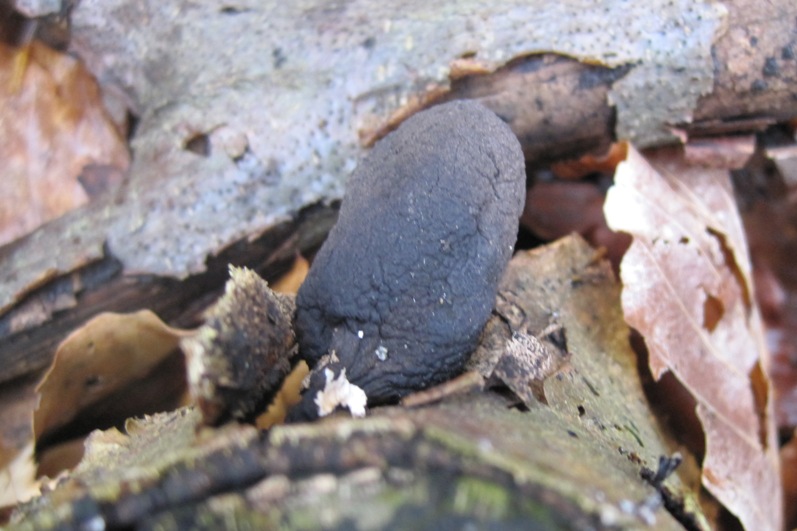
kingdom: Fungi
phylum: Ascomycota
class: Sordariomycetes
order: Xylariales
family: Xylariaceae
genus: Xylaria
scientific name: Xylaria polymorpha
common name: kølle-stødsvamp
